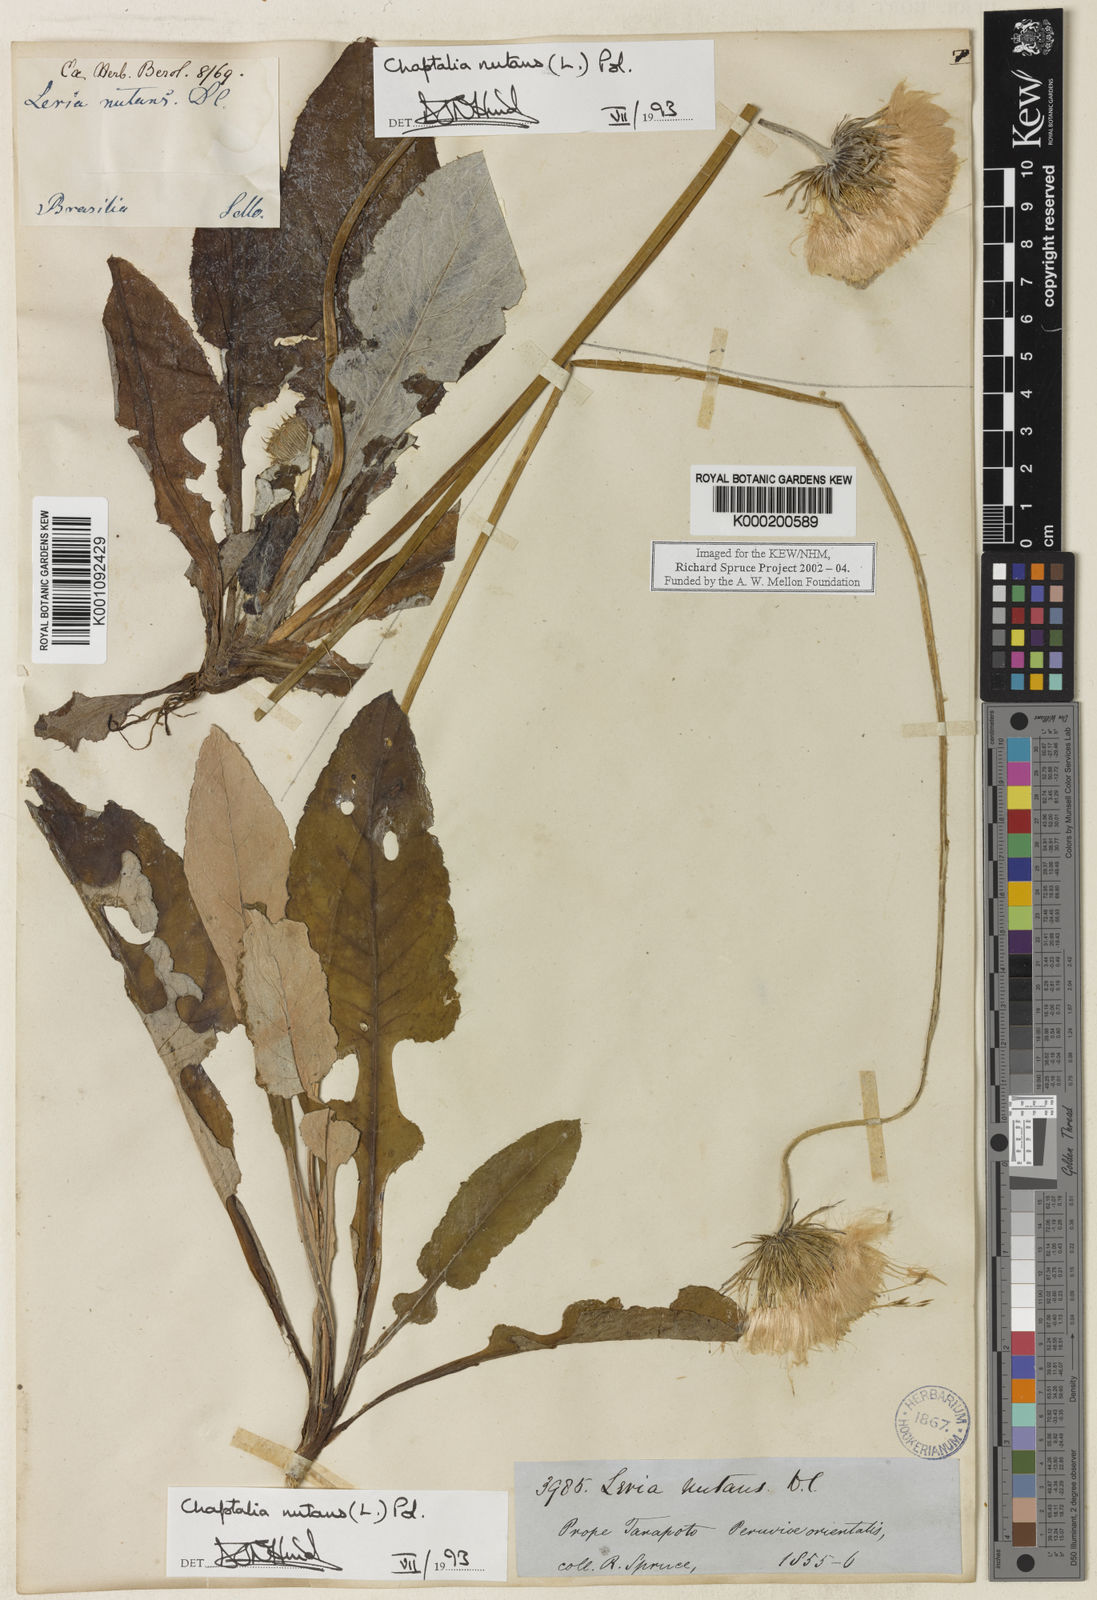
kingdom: Plantae
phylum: Tracheophyta
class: Magnoliopsida
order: Asterales
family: Asteraceae
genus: Chaptalia
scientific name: Chaptalia nutans
